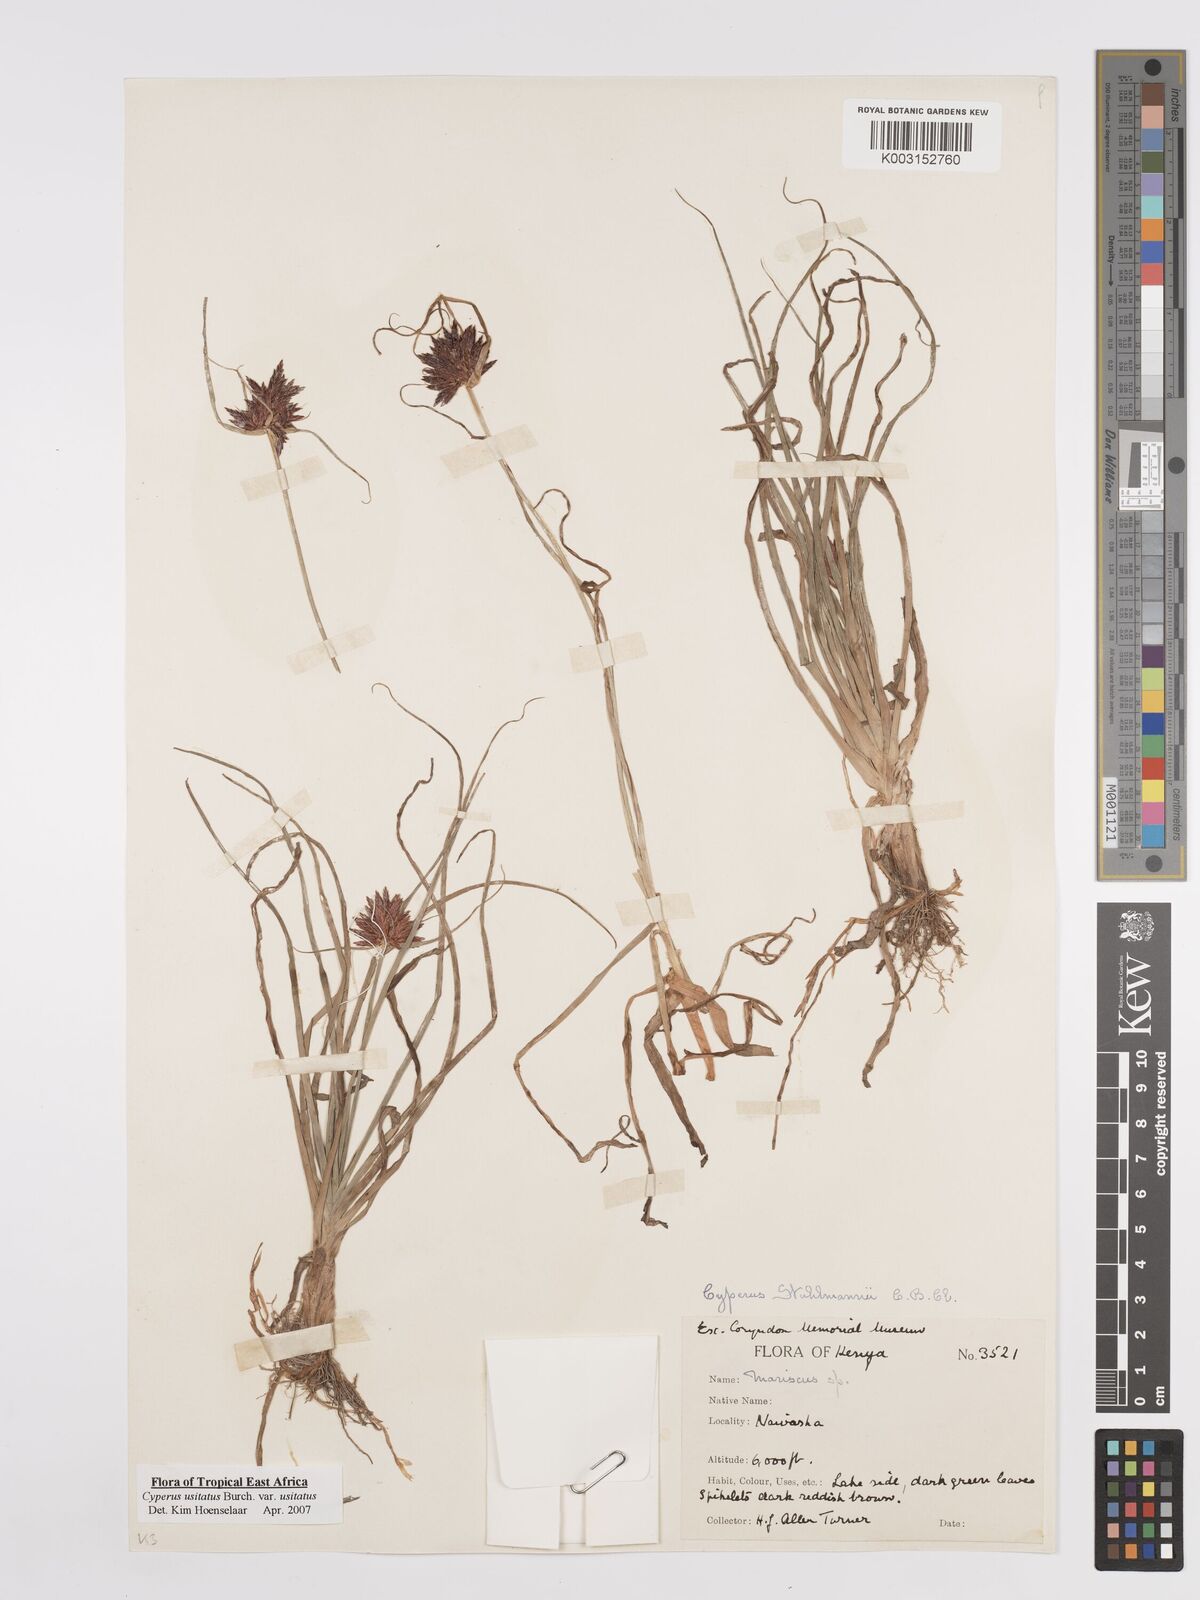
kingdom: Plantae
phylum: Tracheophyta
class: Liliopsida
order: Poales
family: Cyperaceae
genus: Cyperus
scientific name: Cyperus usitatus
